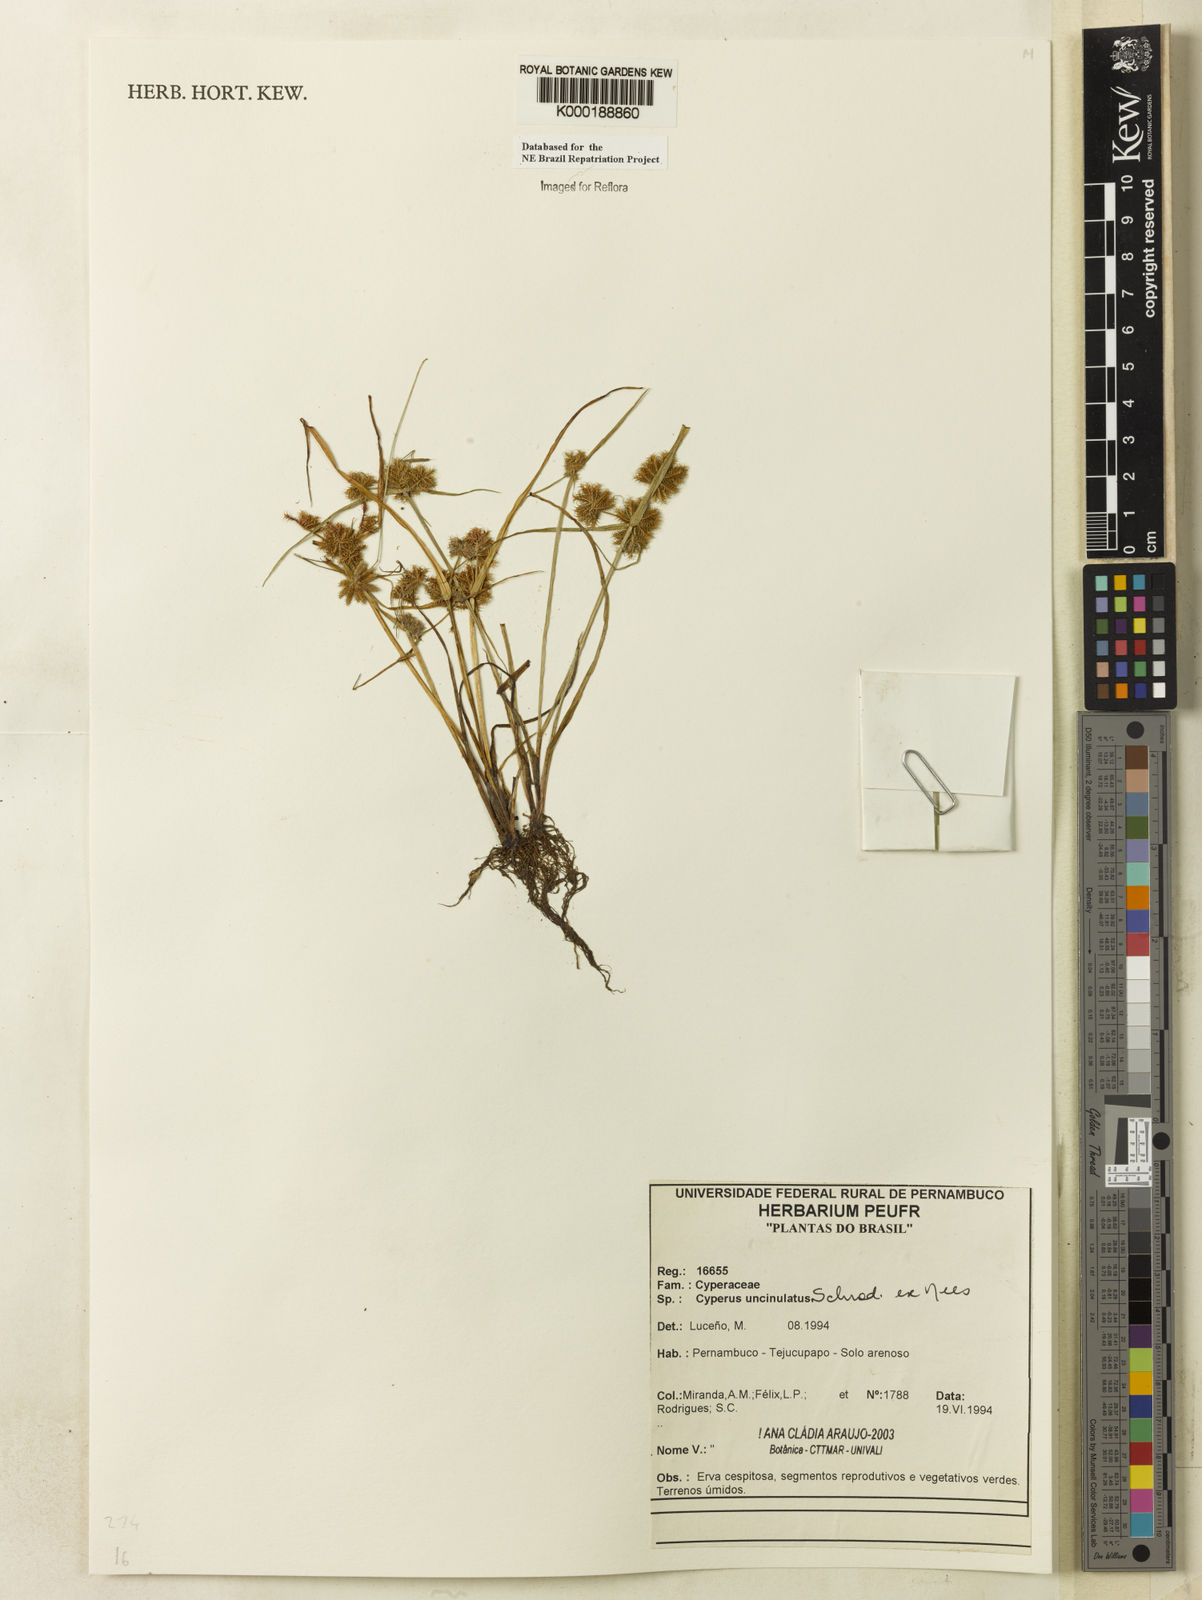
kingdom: Plantae
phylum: Tracheophyta
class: Liliopsida
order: Poales
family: Cyperaceae
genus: Cyperus
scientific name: Cyperus uncinulatus
